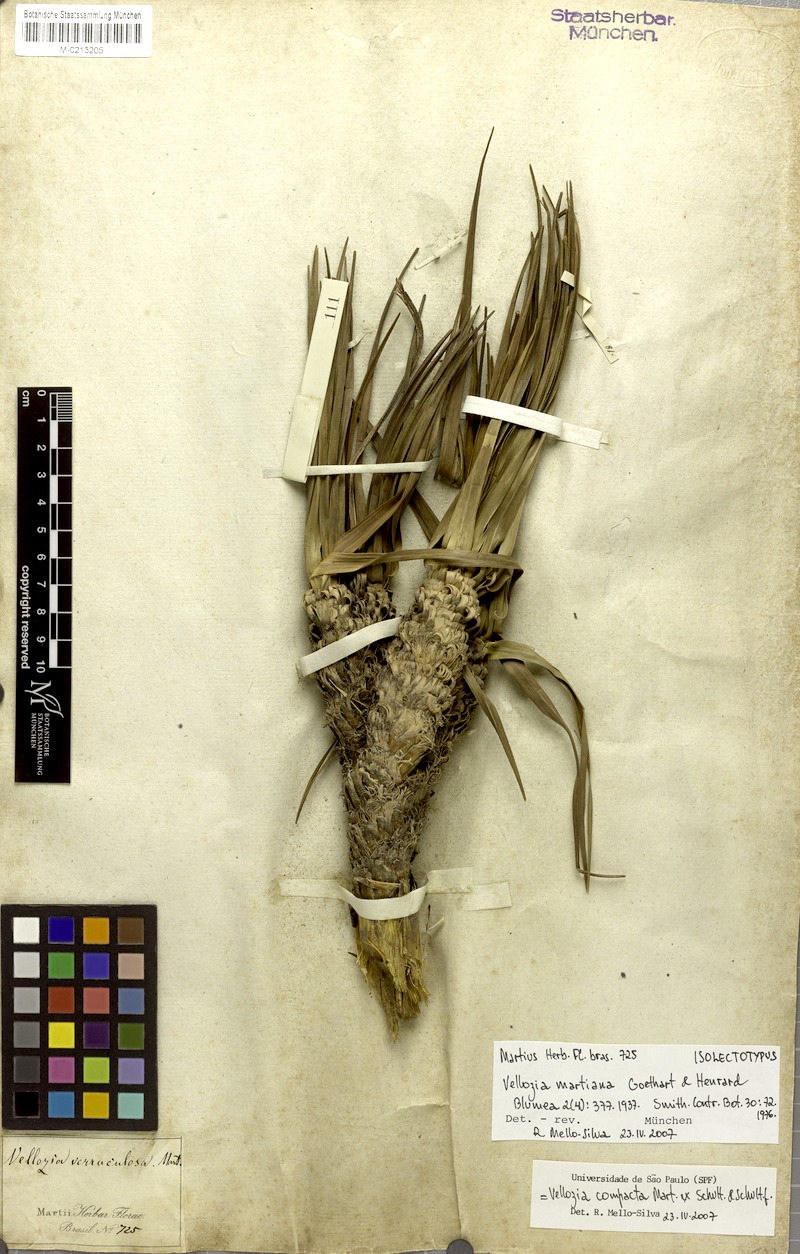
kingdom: Plantae
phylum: Tracheophyta
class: Liliopsida
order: Pandanales
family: Velloziaceae
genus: Vellozia
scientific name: Vellozia compacta
